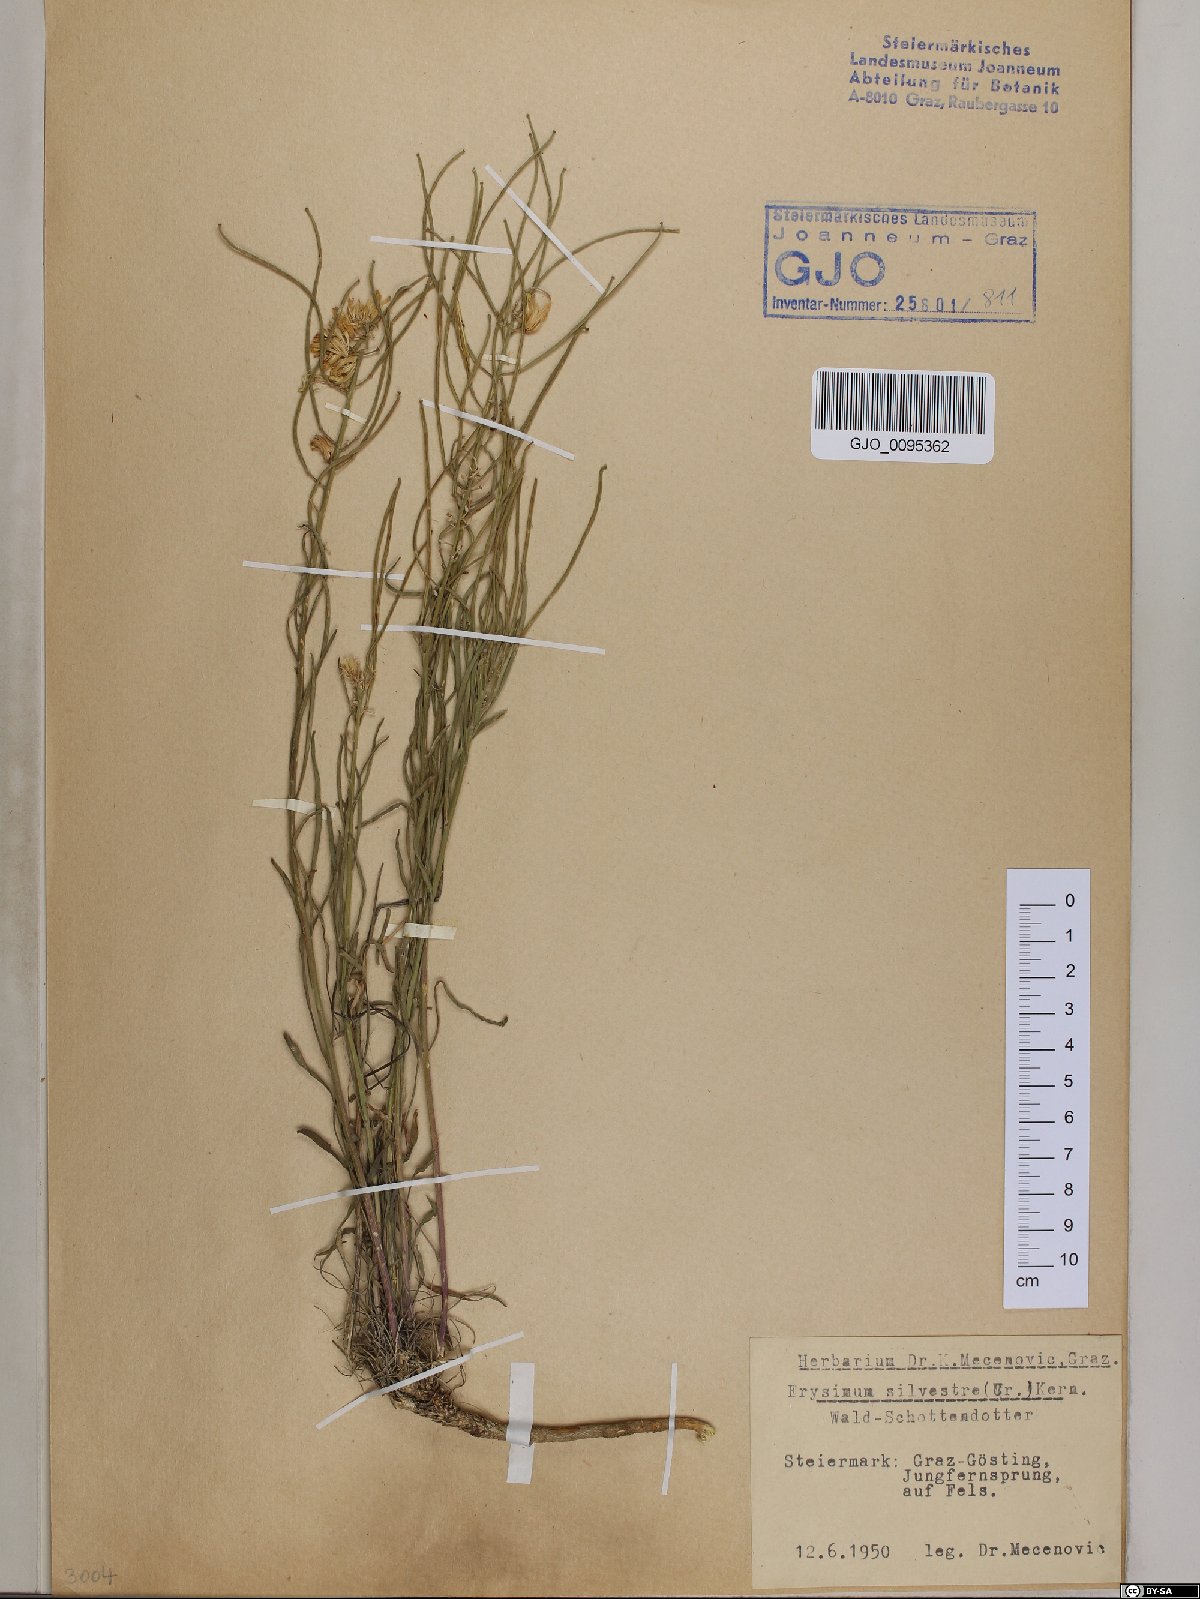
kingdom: Plantae
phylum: Tracheophyta
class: Magnoliopsida
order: Brassicales
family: Brassicaceae
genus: Erysimum
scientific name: Erysimum sylvestre
